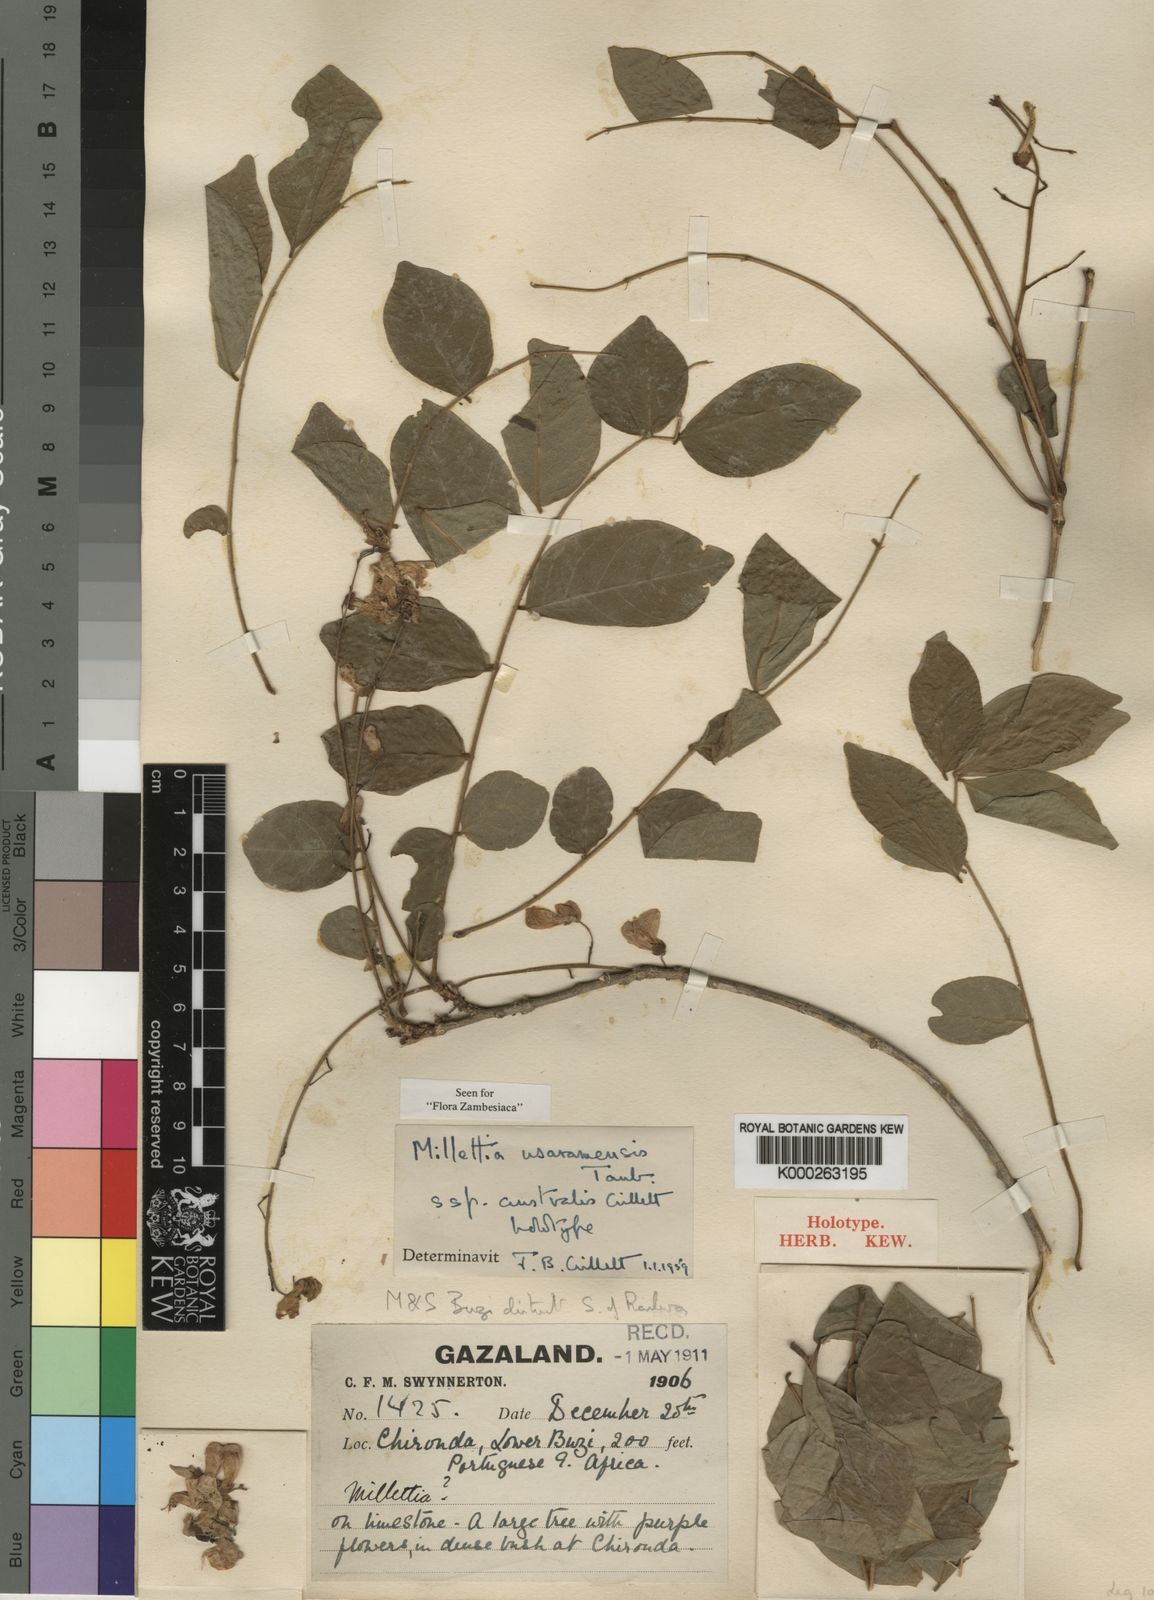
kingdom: Plantae
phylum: Tracheophyta
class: Magnoliopsida
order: Fabales
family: Fabaceae
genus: Millettia
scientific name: Millettia usaramensis
